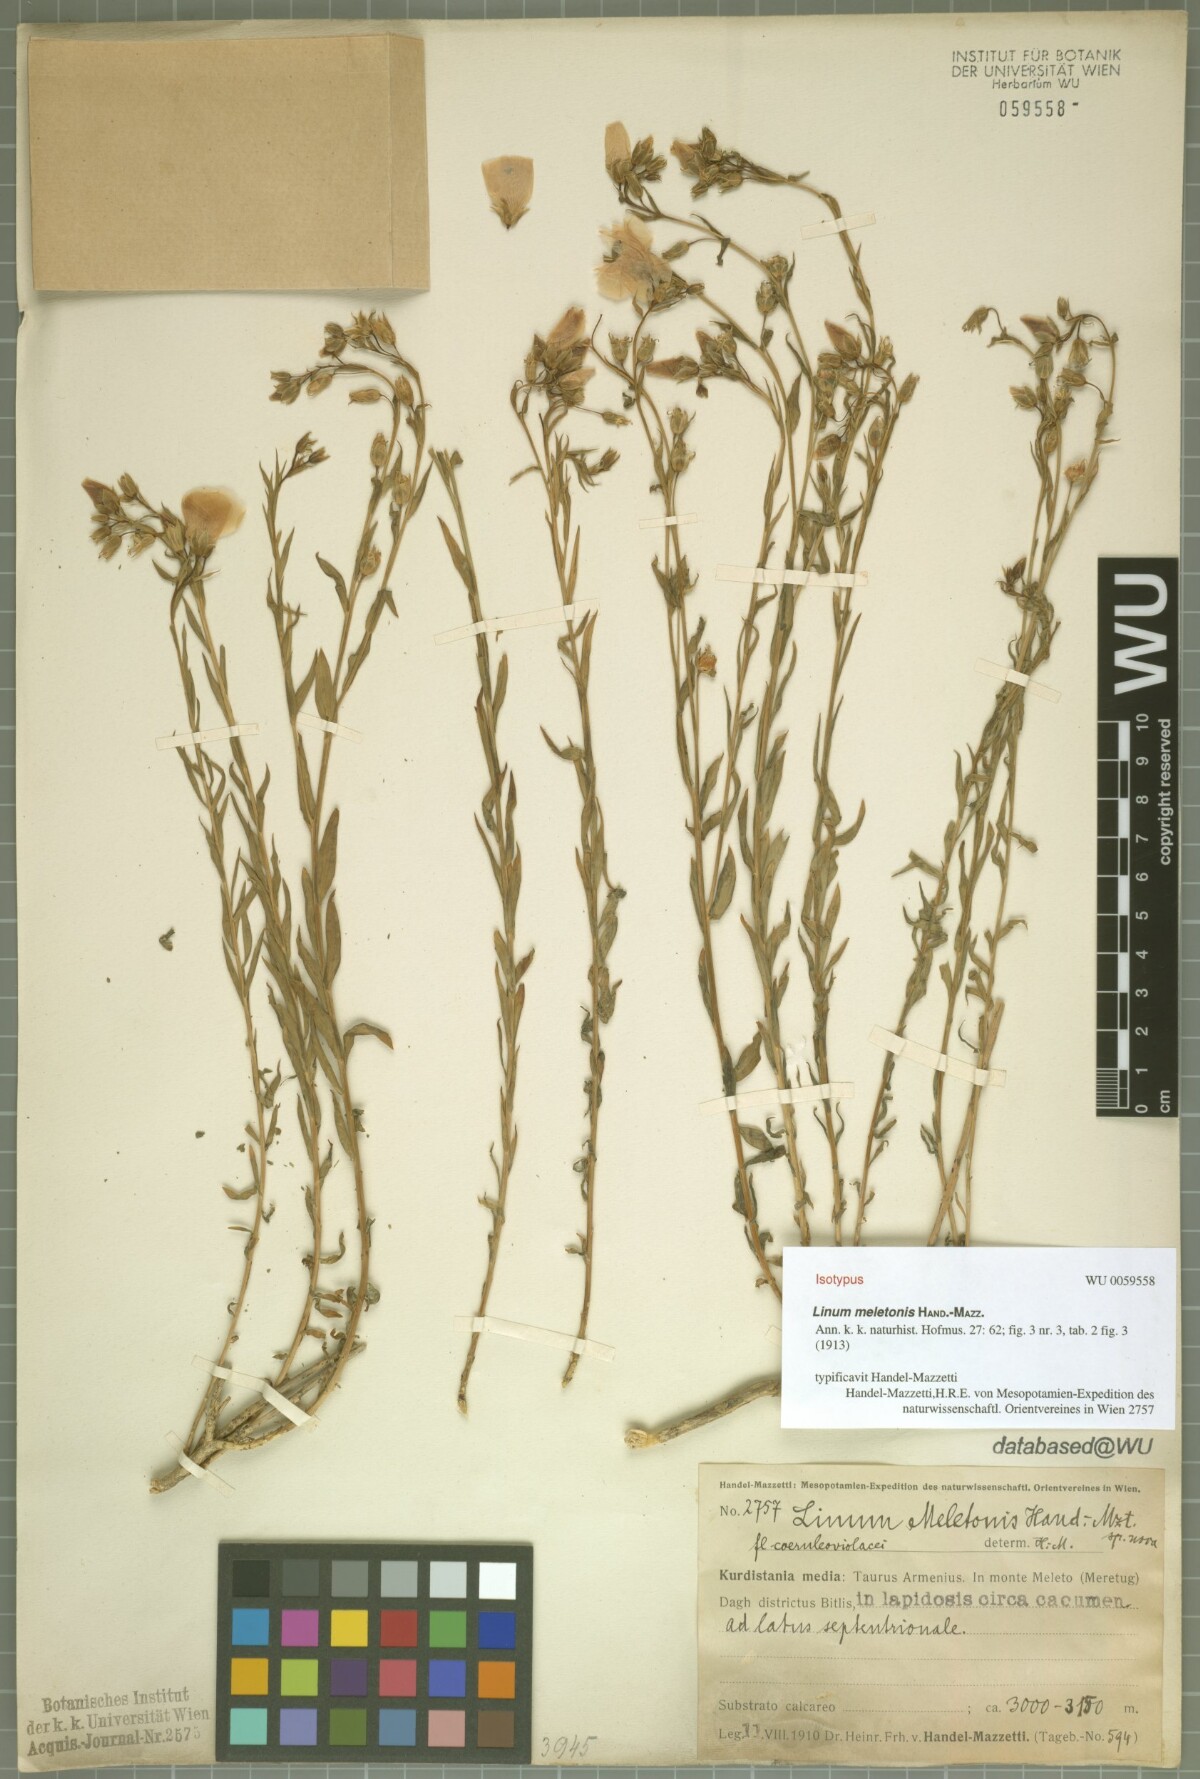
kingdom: Plantae
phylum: Tracheophyta
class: Magnoliopsida
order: Malpighiales
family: Linaceae
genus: Linum
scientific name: Linum meletonis
